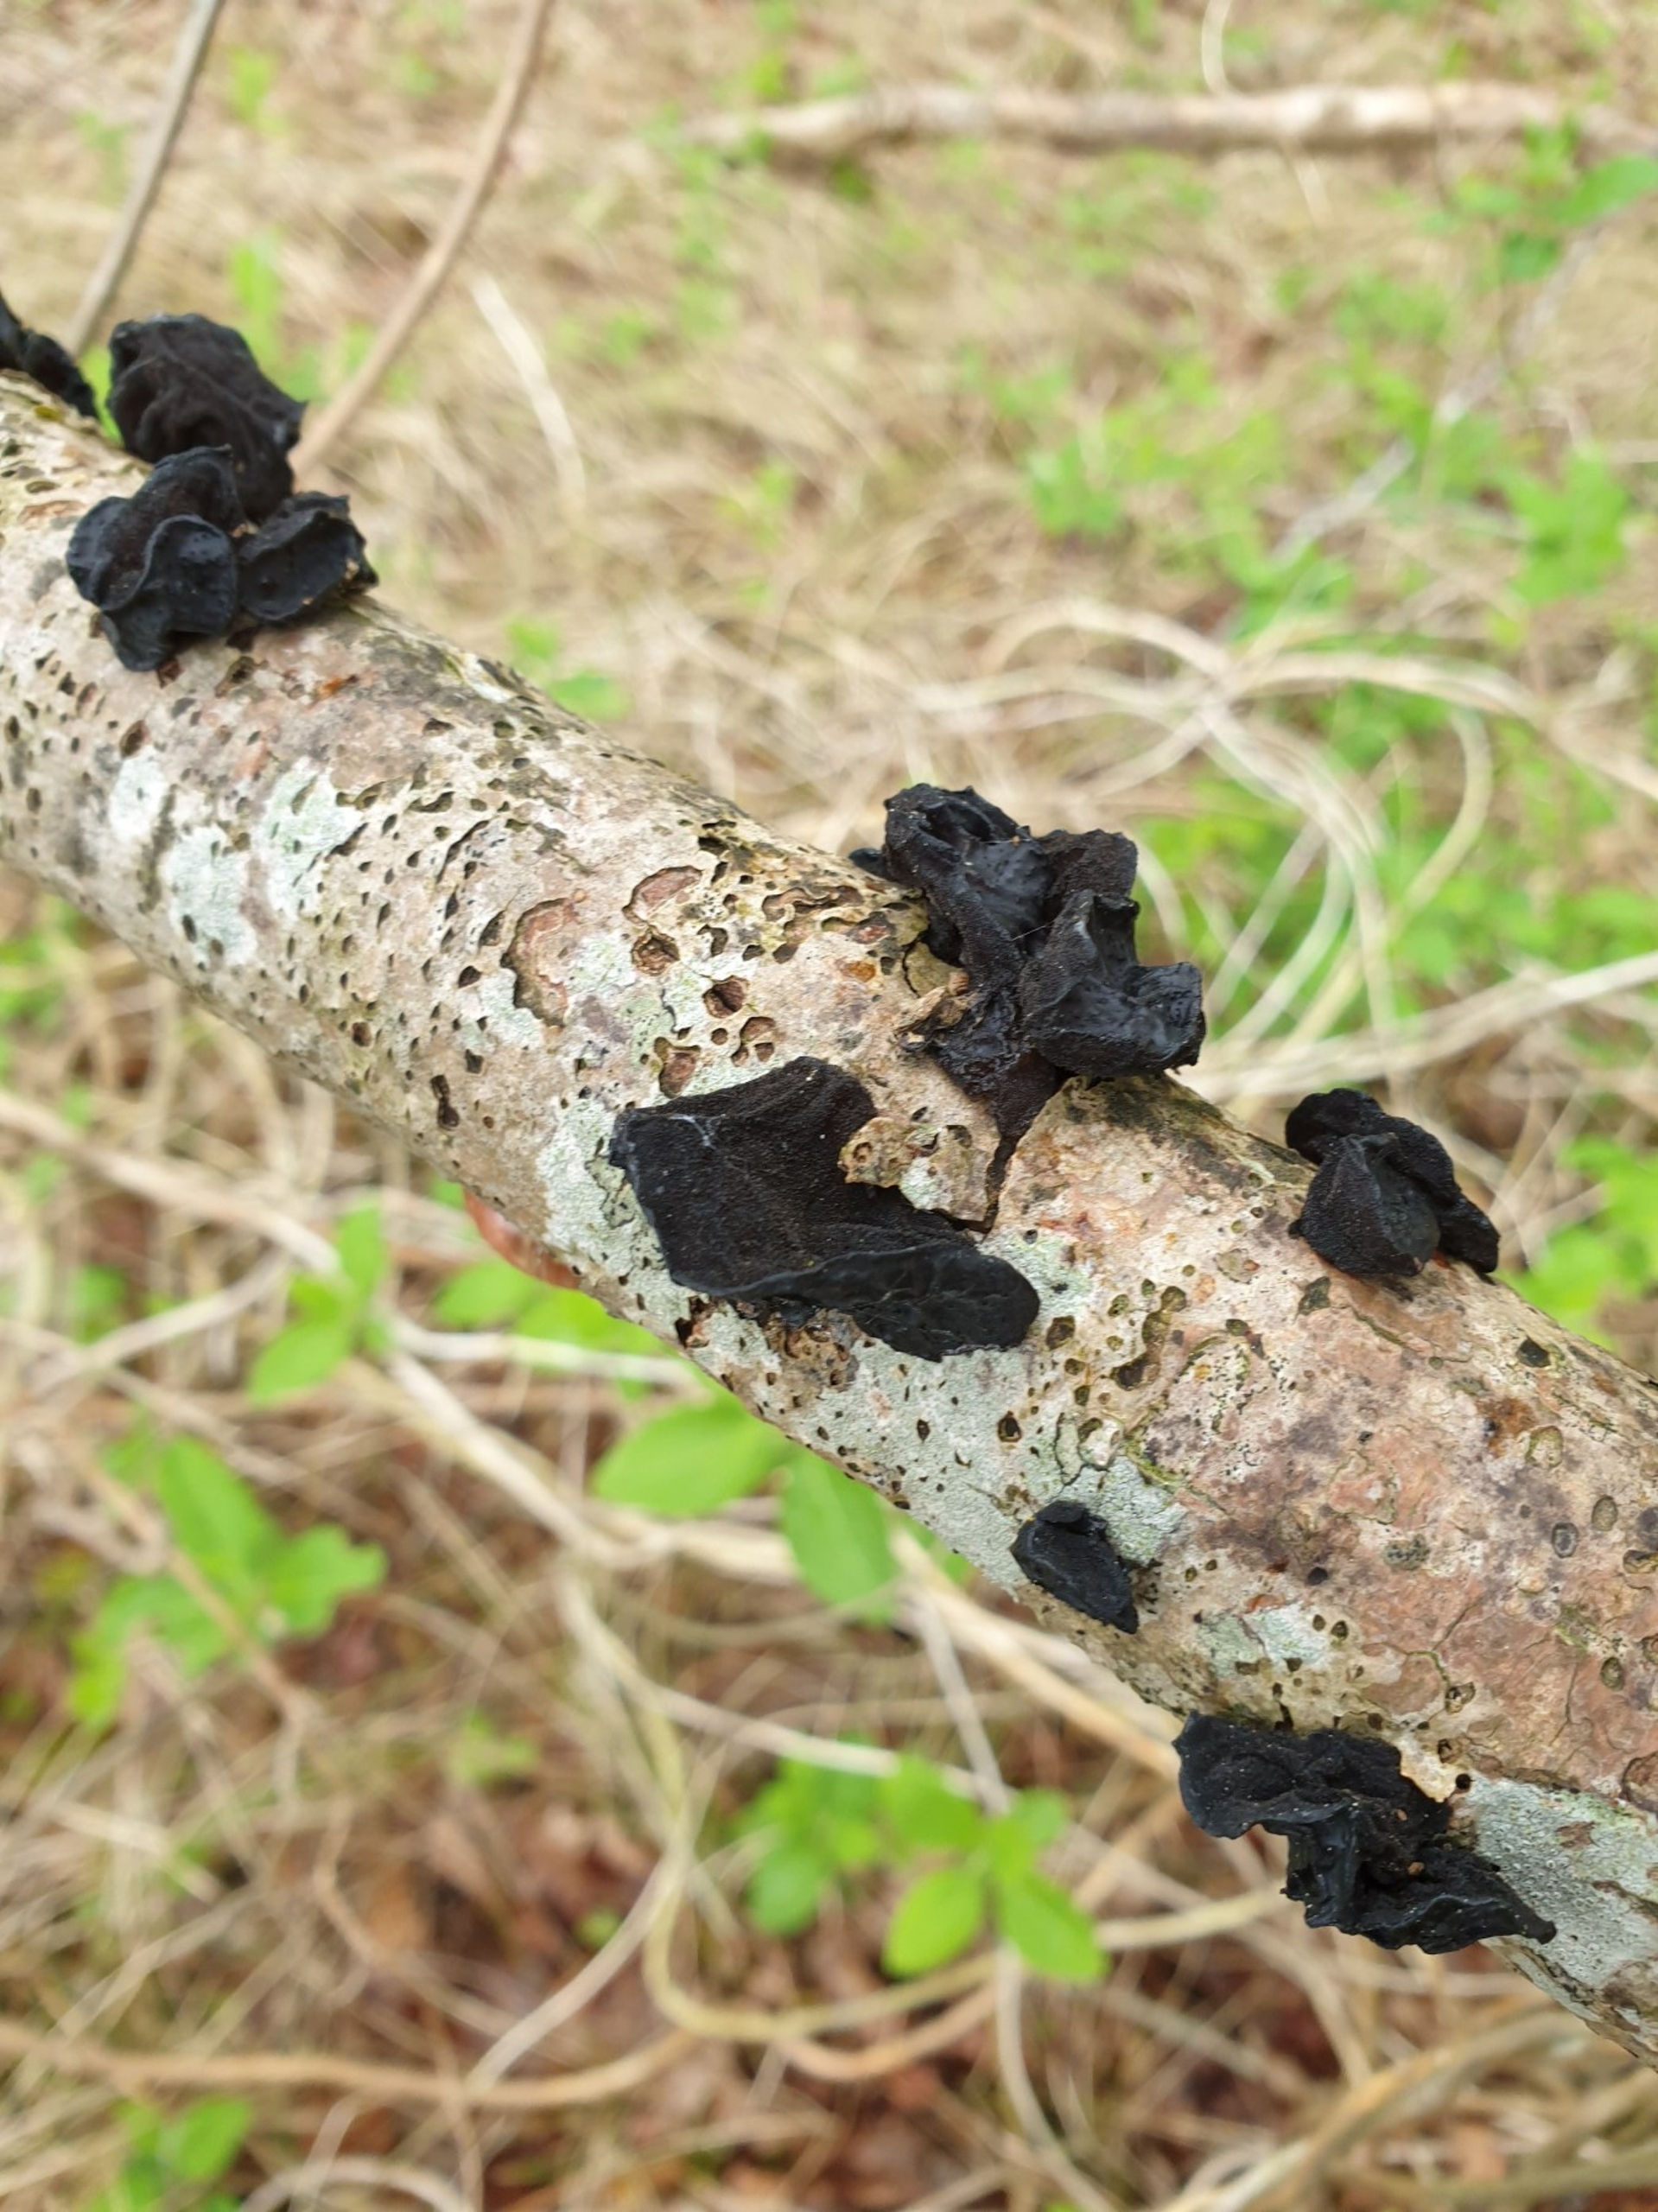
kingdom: Fungi
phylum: Basidiomycota
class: Agaricomycetes
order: Auriculariales
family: Auriculariaceae
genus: Exidia
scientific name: Exidia glandulosa
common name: Ege-bævretop
